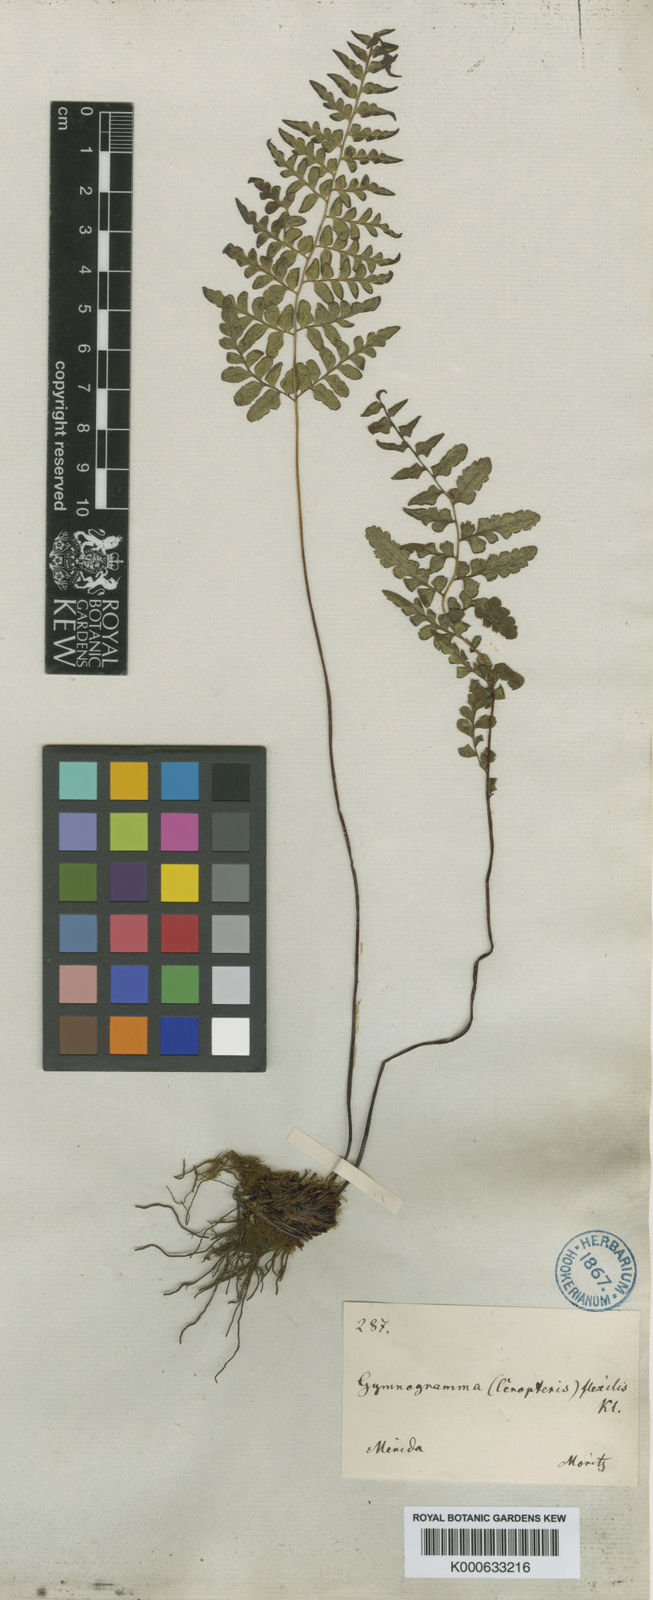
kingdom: Plantae
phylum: Tracheophyta
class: Polypodiopsida
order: Polypodiales
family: Pteridaceae
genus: Pityrogramma
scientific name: Pityrogramma chrysoconia
